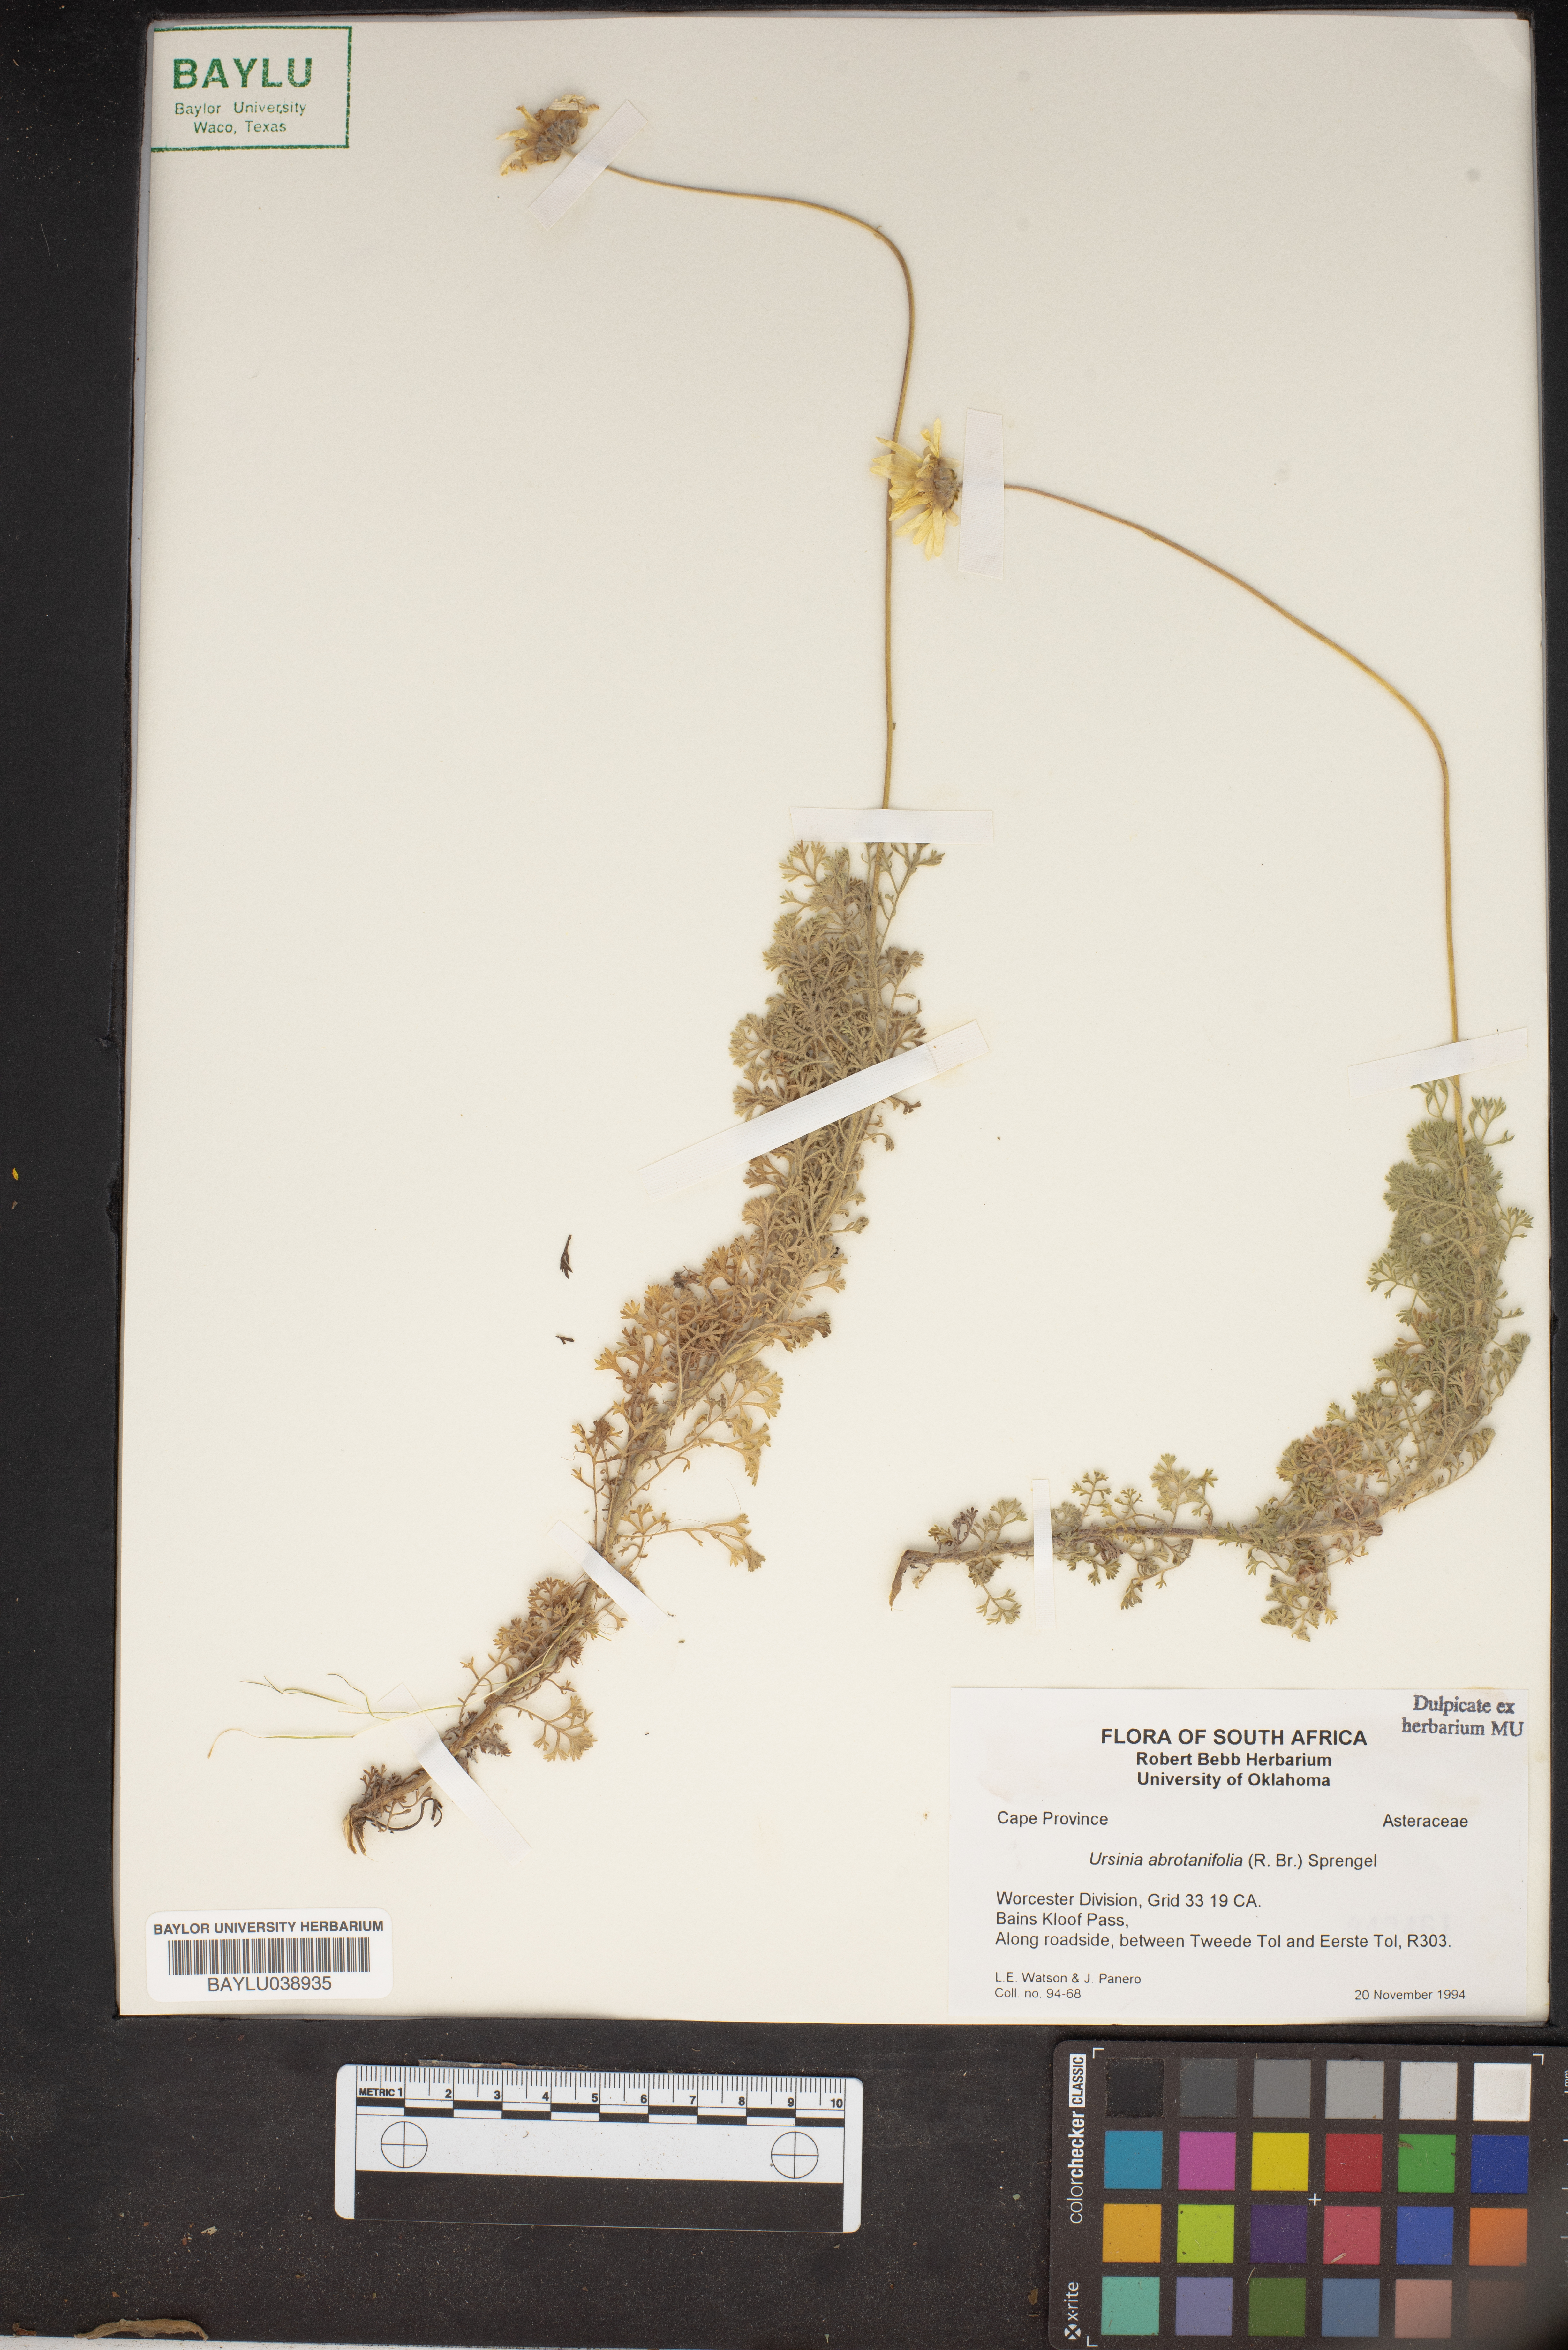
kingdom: Plantae
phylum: Tracheophyta
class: Magnoliopsida
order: Asterales
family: Asteraceae
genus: Ursinia
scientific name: Ursinia abrotanifolia
